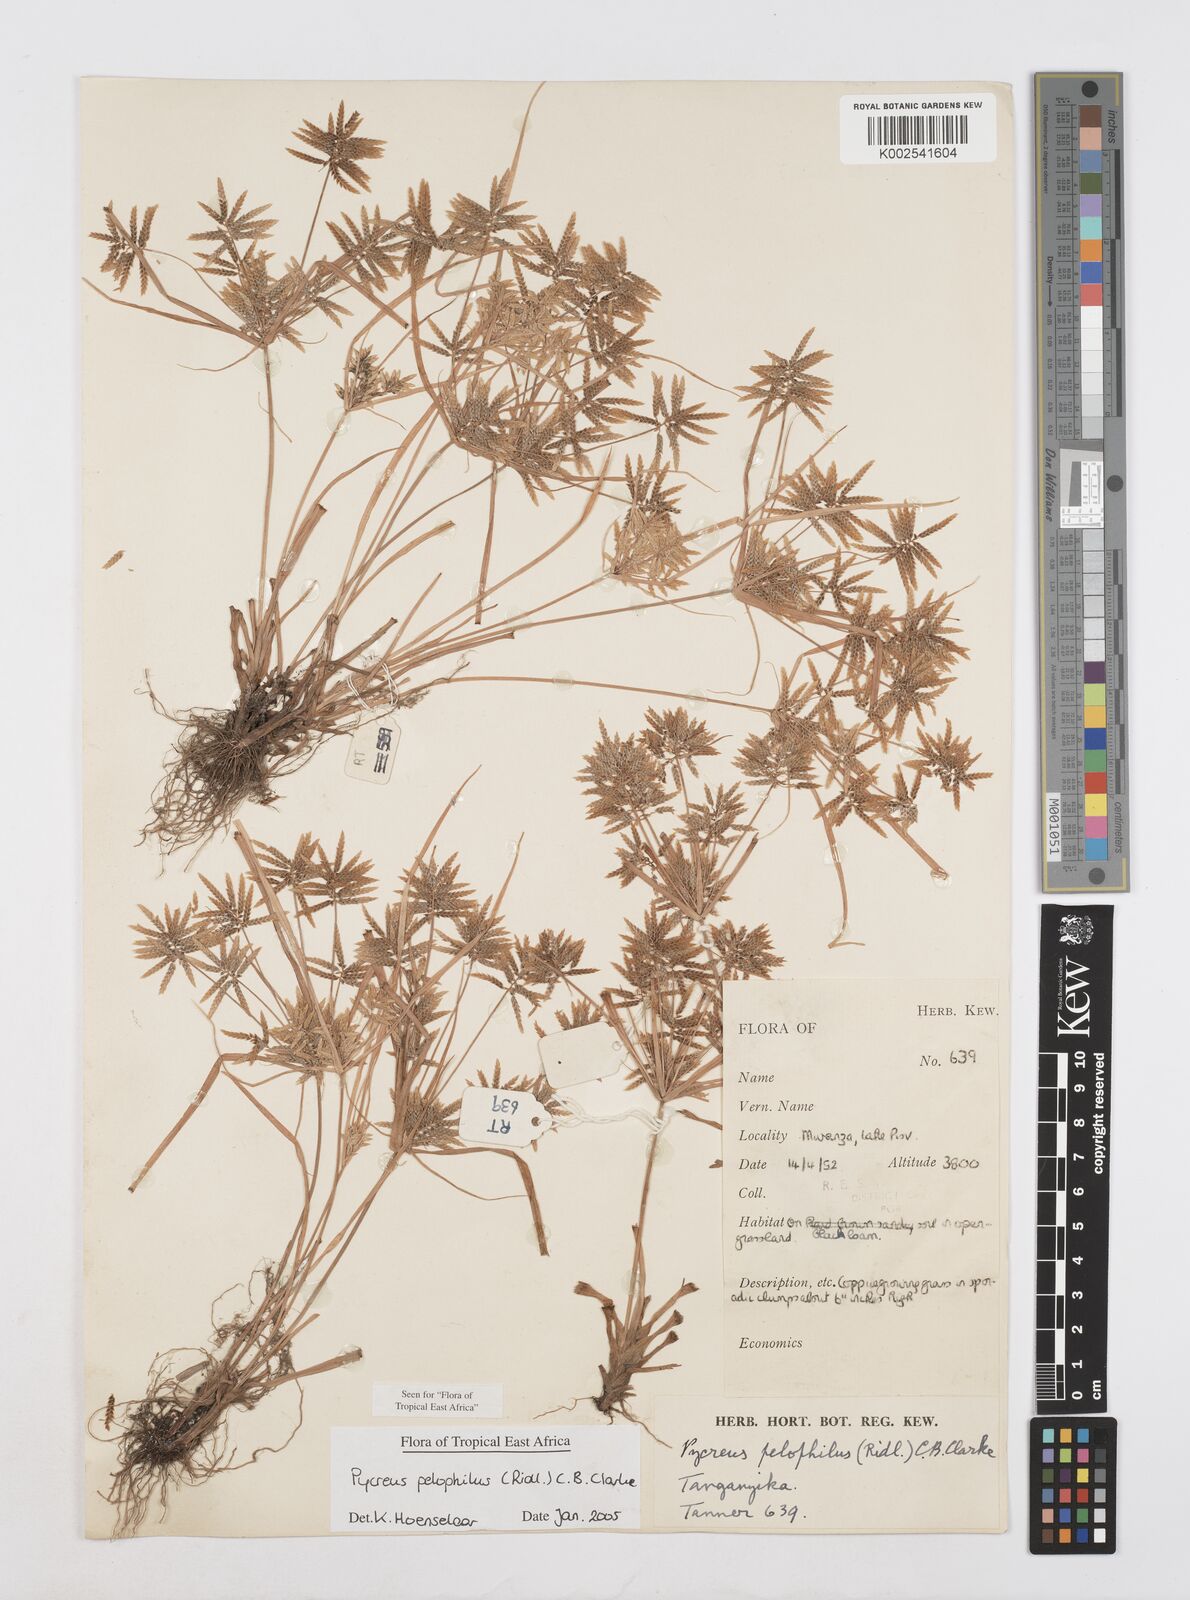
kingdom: Plantae
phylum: Tracheophyta
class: Liliopsida
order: Poales
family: Cyperaceae
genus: Cyperus
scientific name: Cyperus pelophilus
